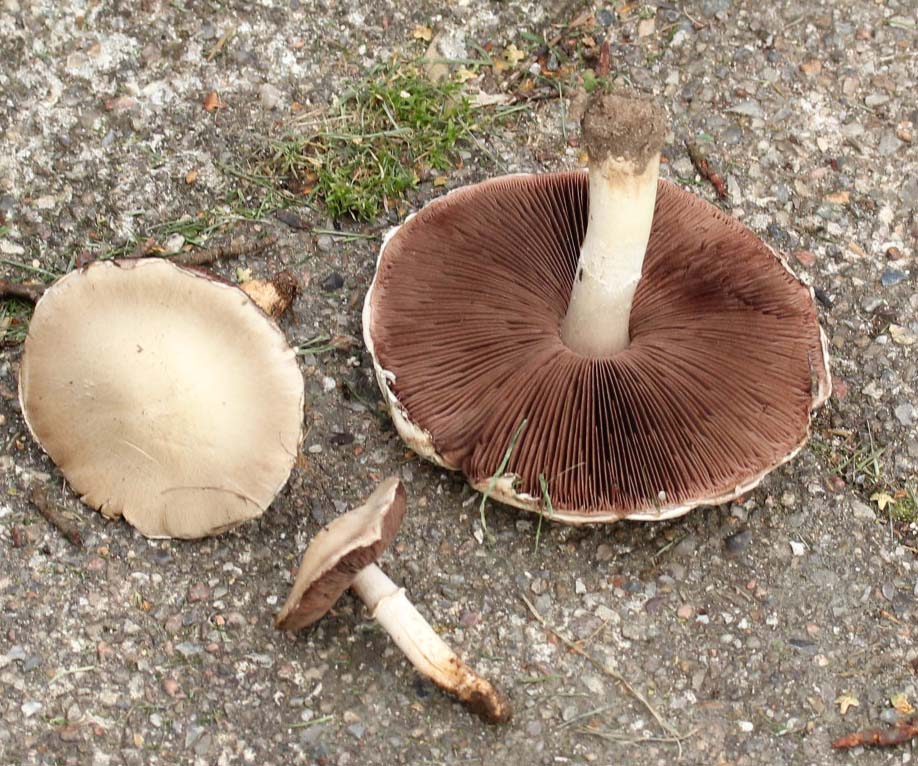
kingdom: Fungi
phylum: Basidiomycota
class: Agaricomycetes
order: Agaricales
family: Agaricaceae
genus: Agaricus
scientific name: Agaricus campestris
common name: mark-champignon
